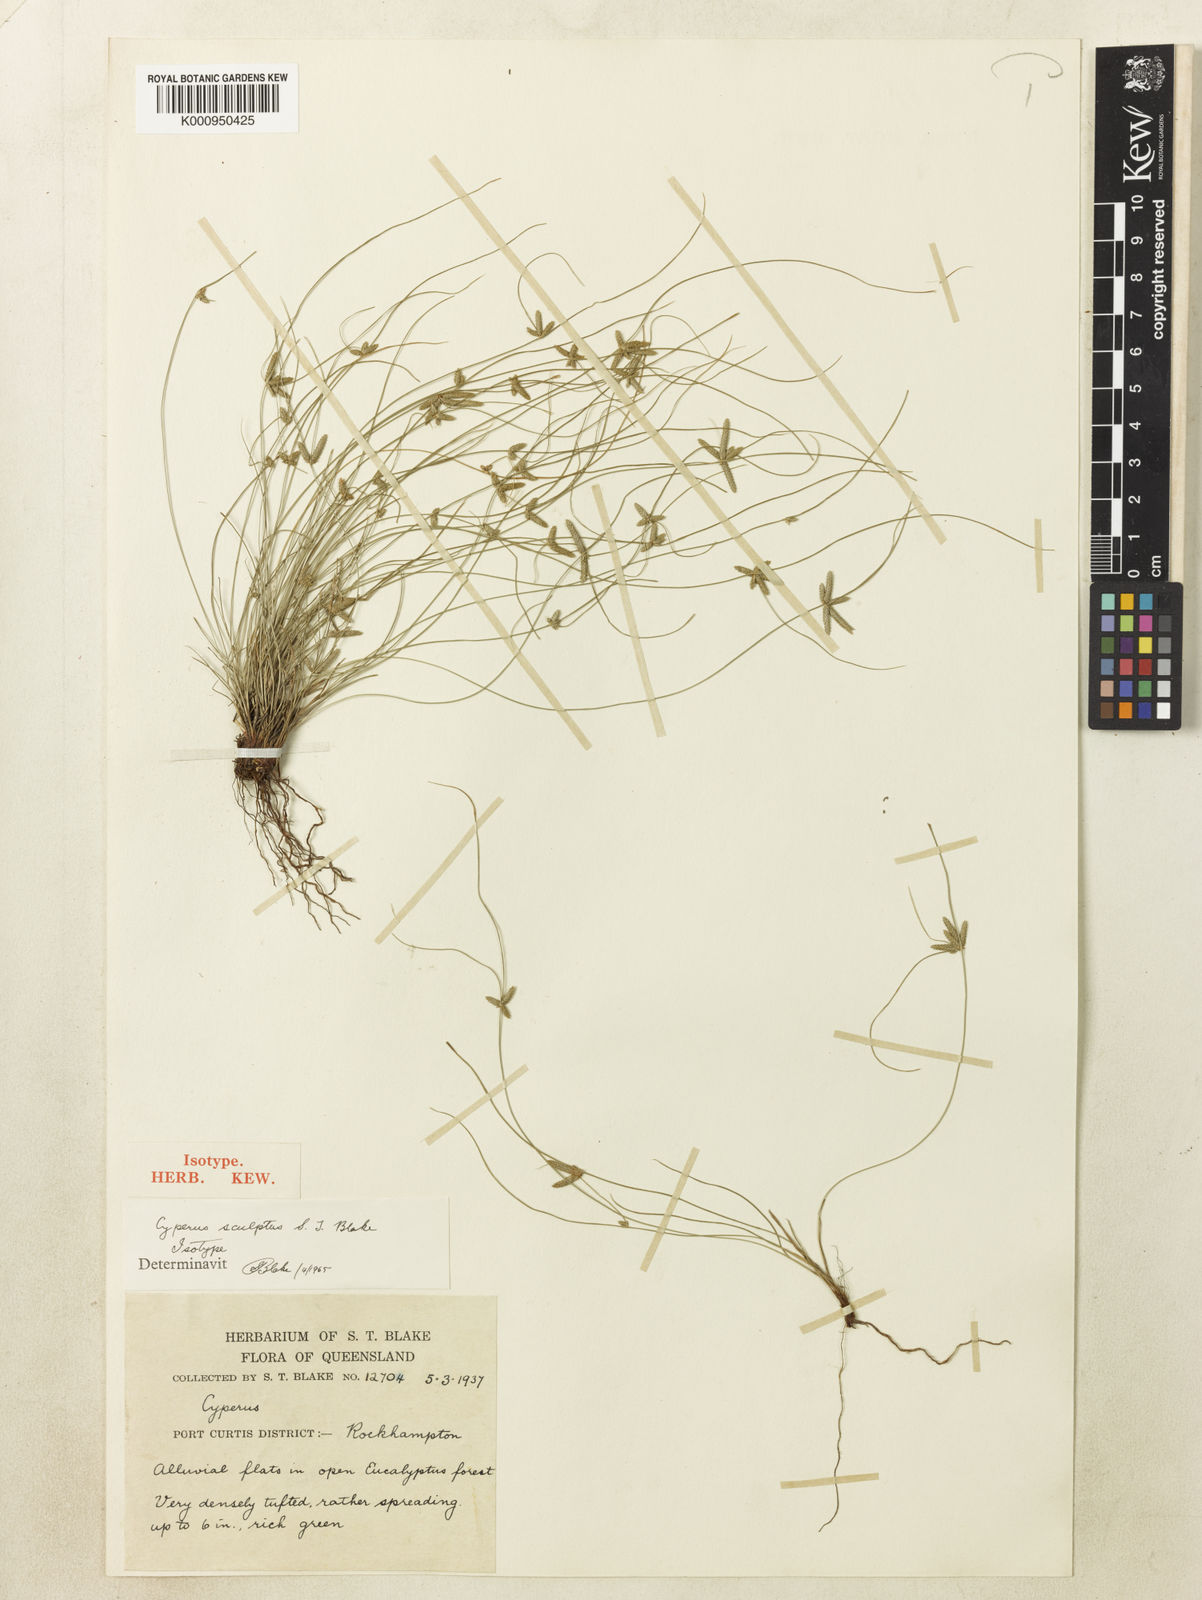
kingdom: Plantae
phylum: Tracheophyta
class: Liliopsida
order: Poales
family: Cyperaceae
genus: Cyperus
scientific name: Cyperus sculptus
